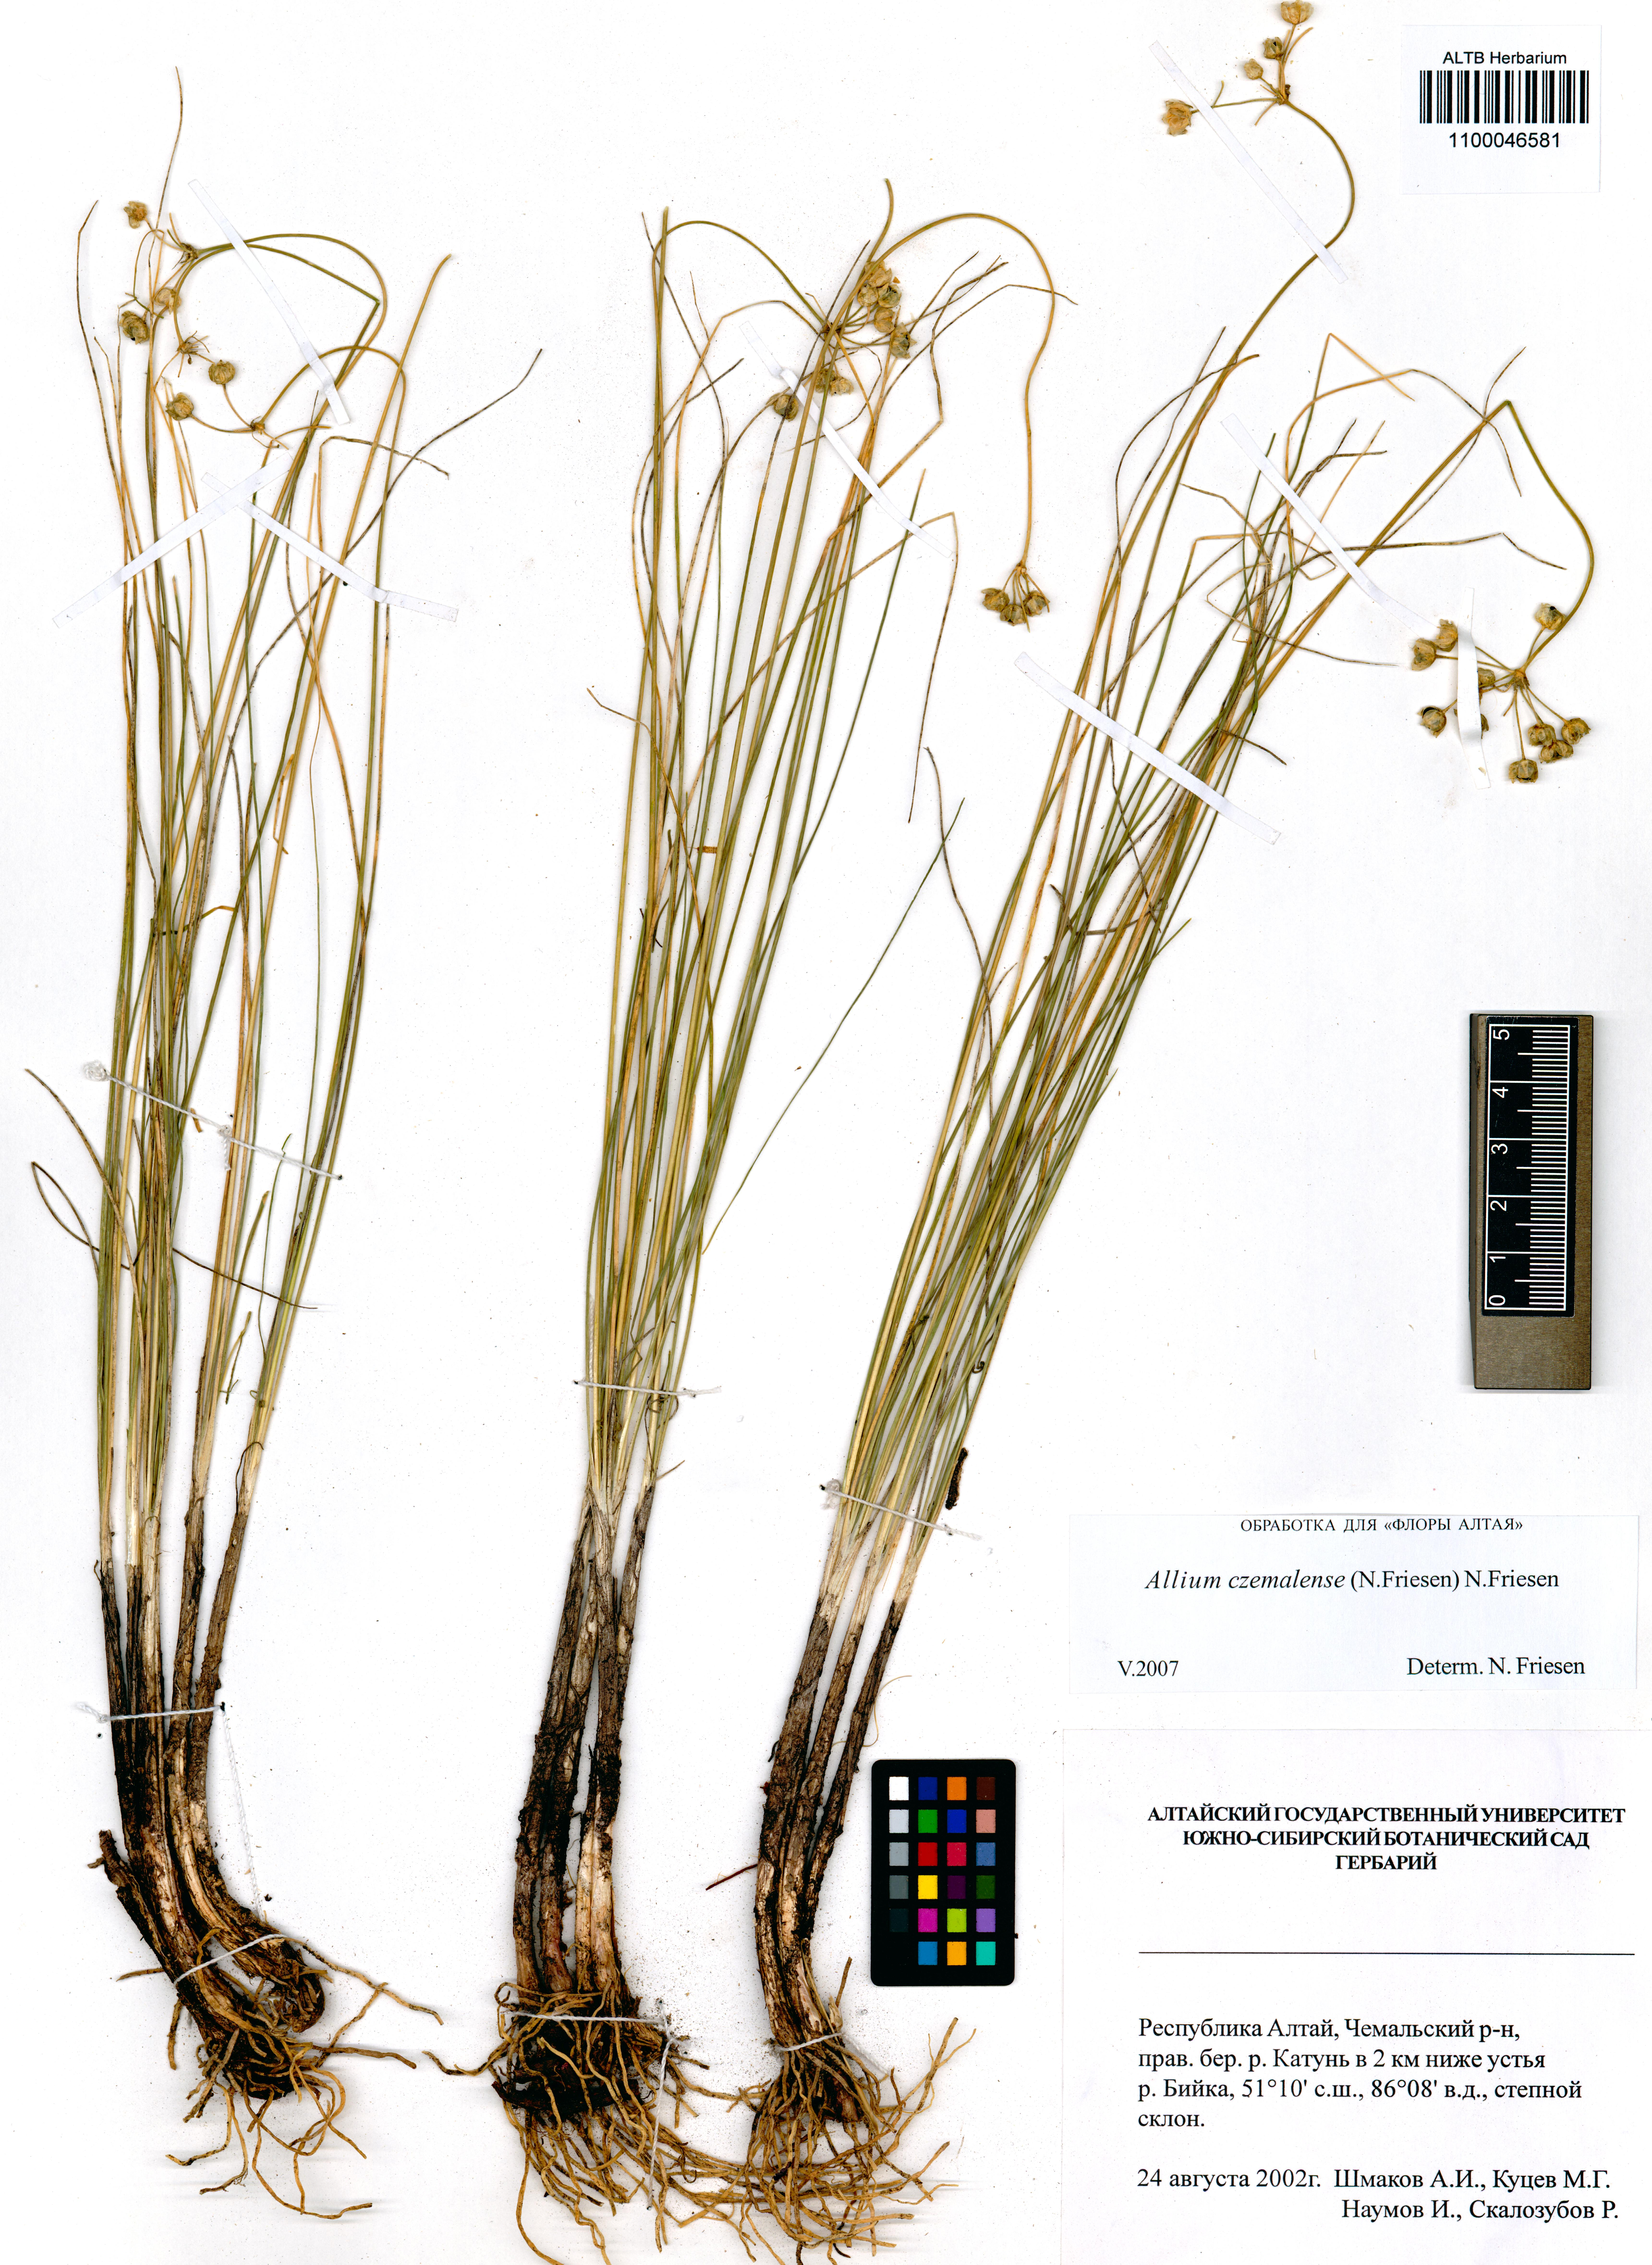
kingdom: Plantae
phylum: Tracheophyta
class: Liliopsida
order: Asparagales
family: Amaryllidaceae
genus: Allium
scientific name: Allium
